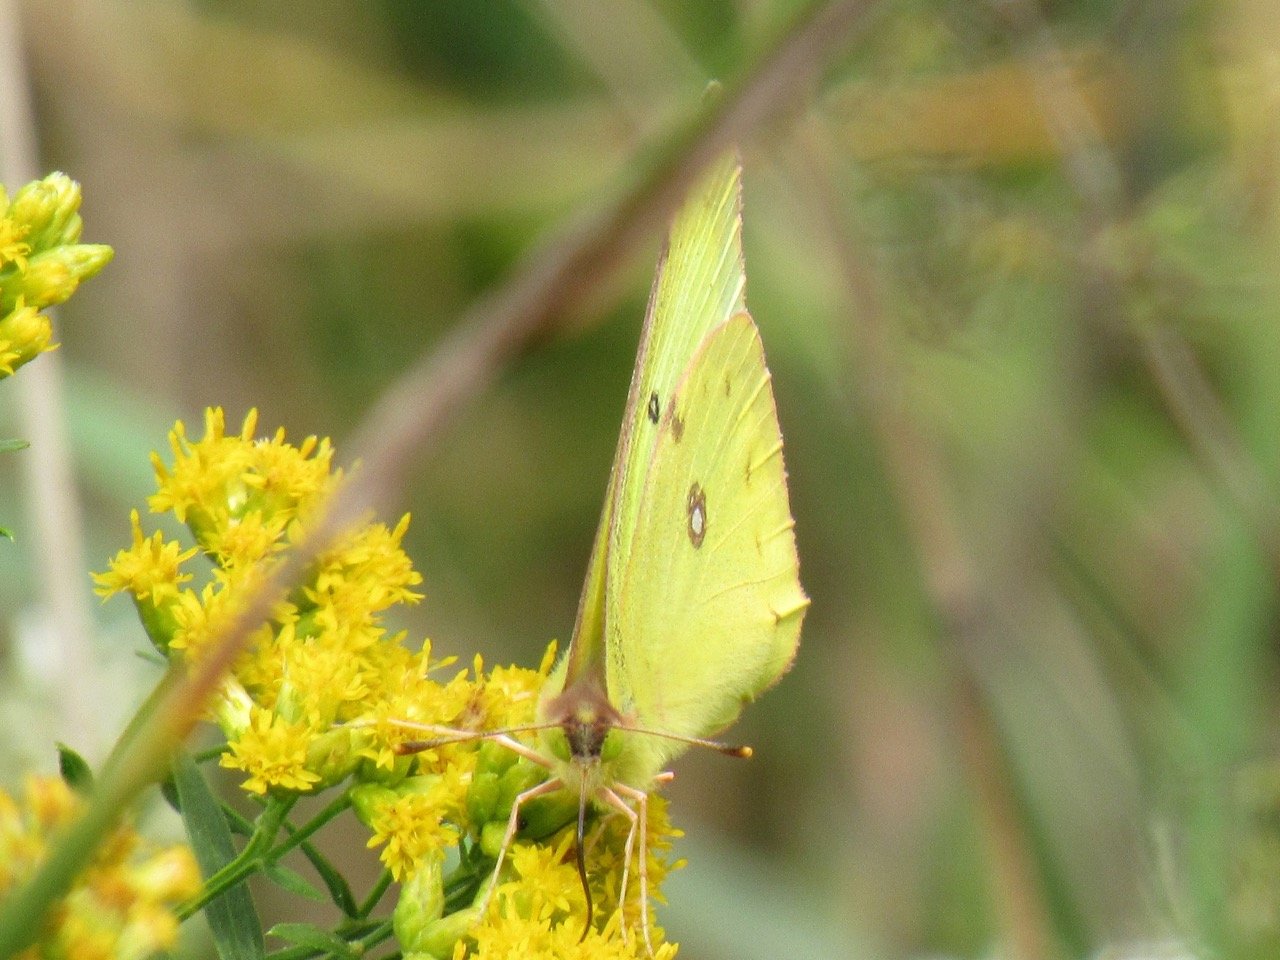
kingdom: Animalia
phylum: Arthropoda
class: Insecta
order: Lepidoptera
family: Pieridae
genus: Colias
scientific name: Colias philodice
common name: Clouded Sulphur
